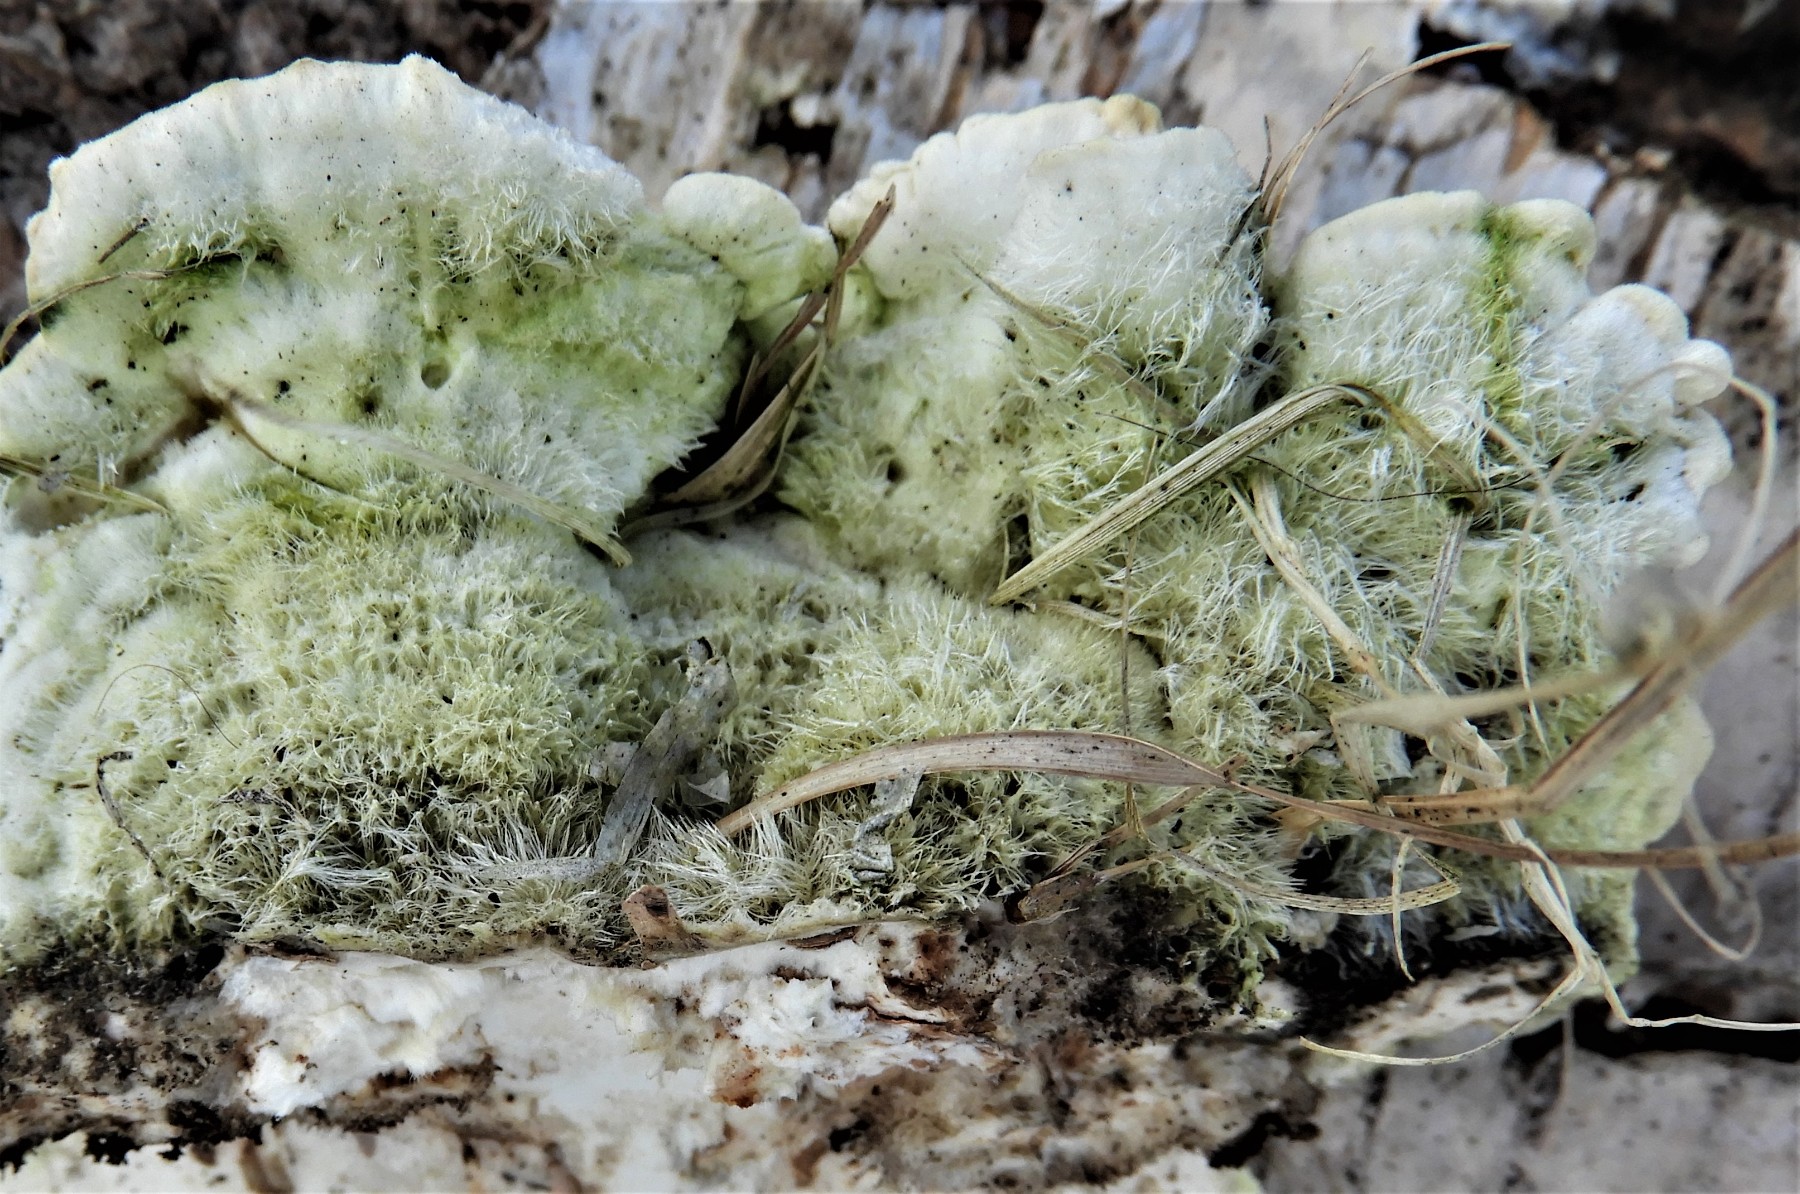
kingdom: Fungi
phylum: Basidiomycota
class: Agaricomycetes
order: Polyporales
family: Polyporaceae
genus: Trametes
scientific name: Trametes hirsuta
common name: håret læderporesvamp
